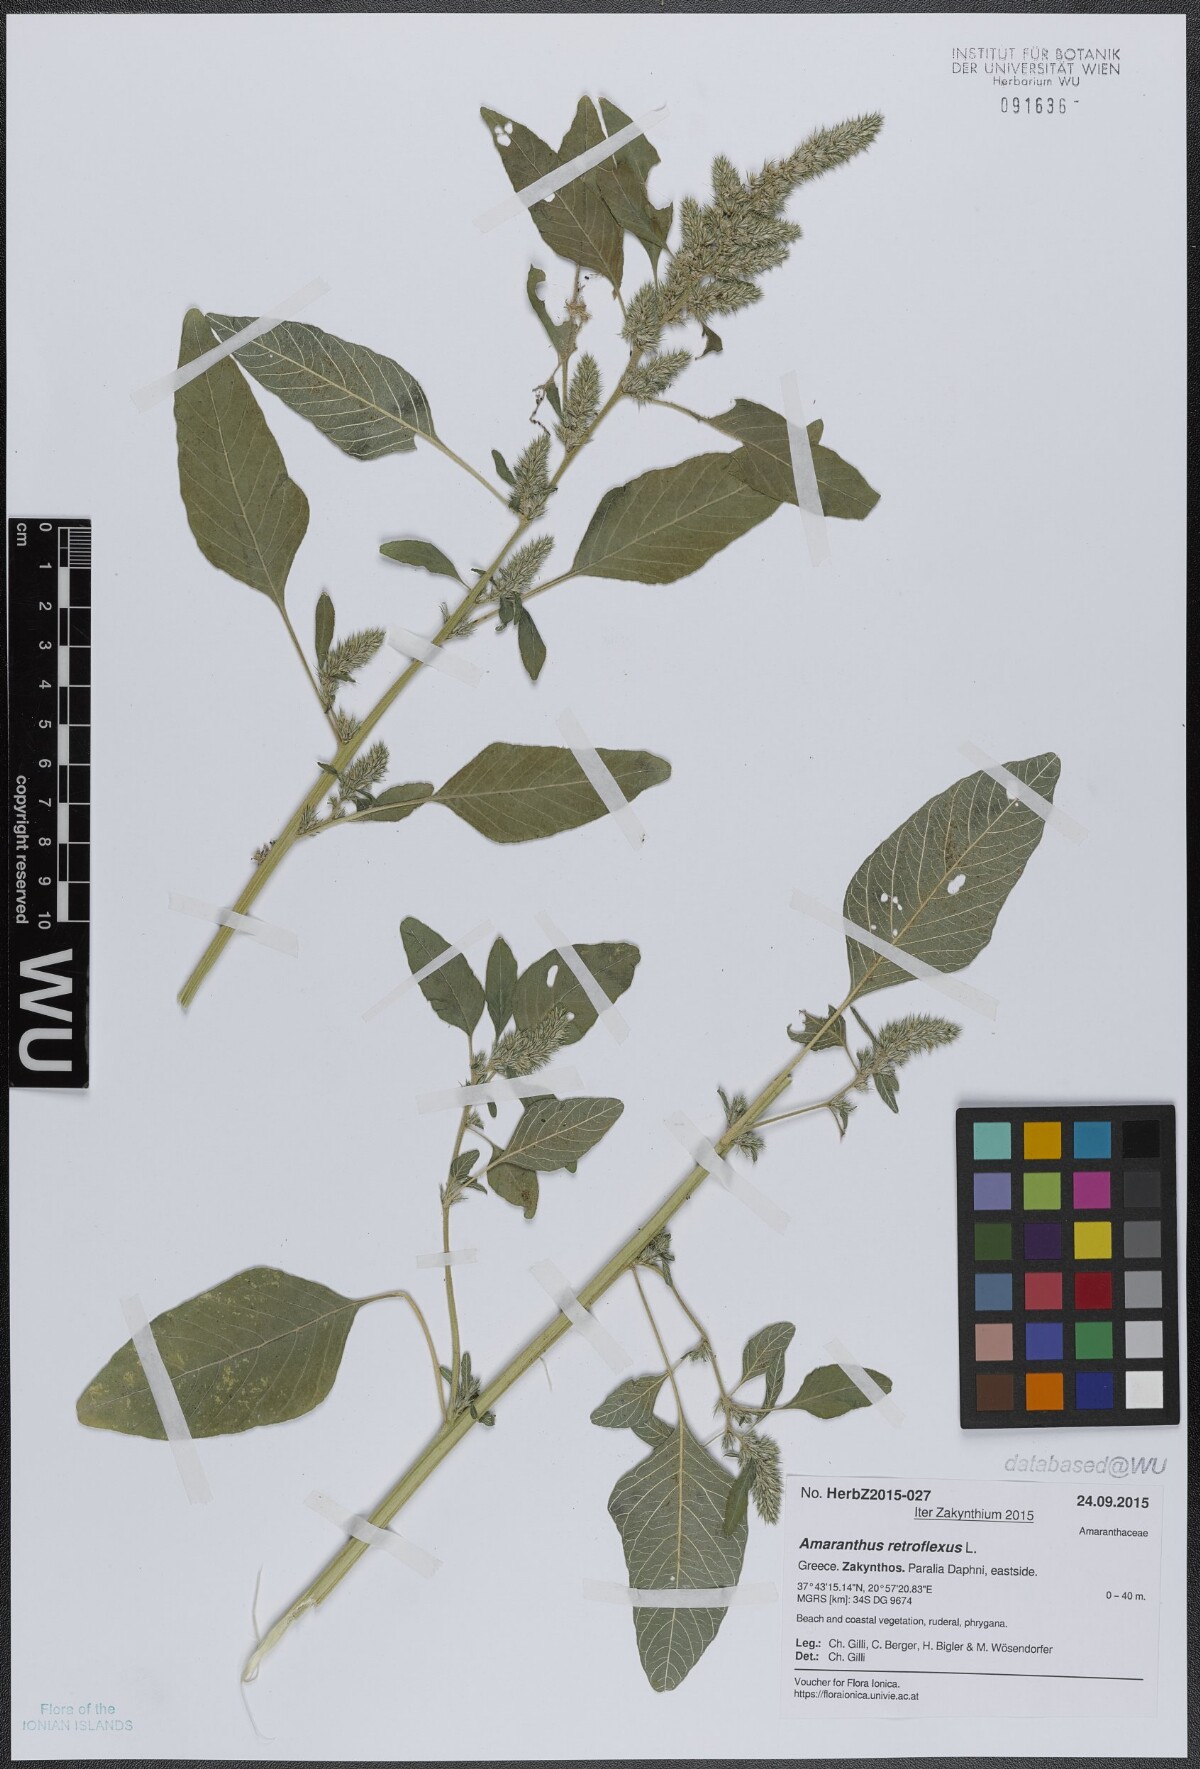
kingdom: Plantae
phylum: Tracheophyta
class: Magnoliopsida
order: Caryophyllales
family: Amaranthaceae
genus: Amaranthus
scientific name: Amaranthus retroflexus
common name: Redroot amaranth
